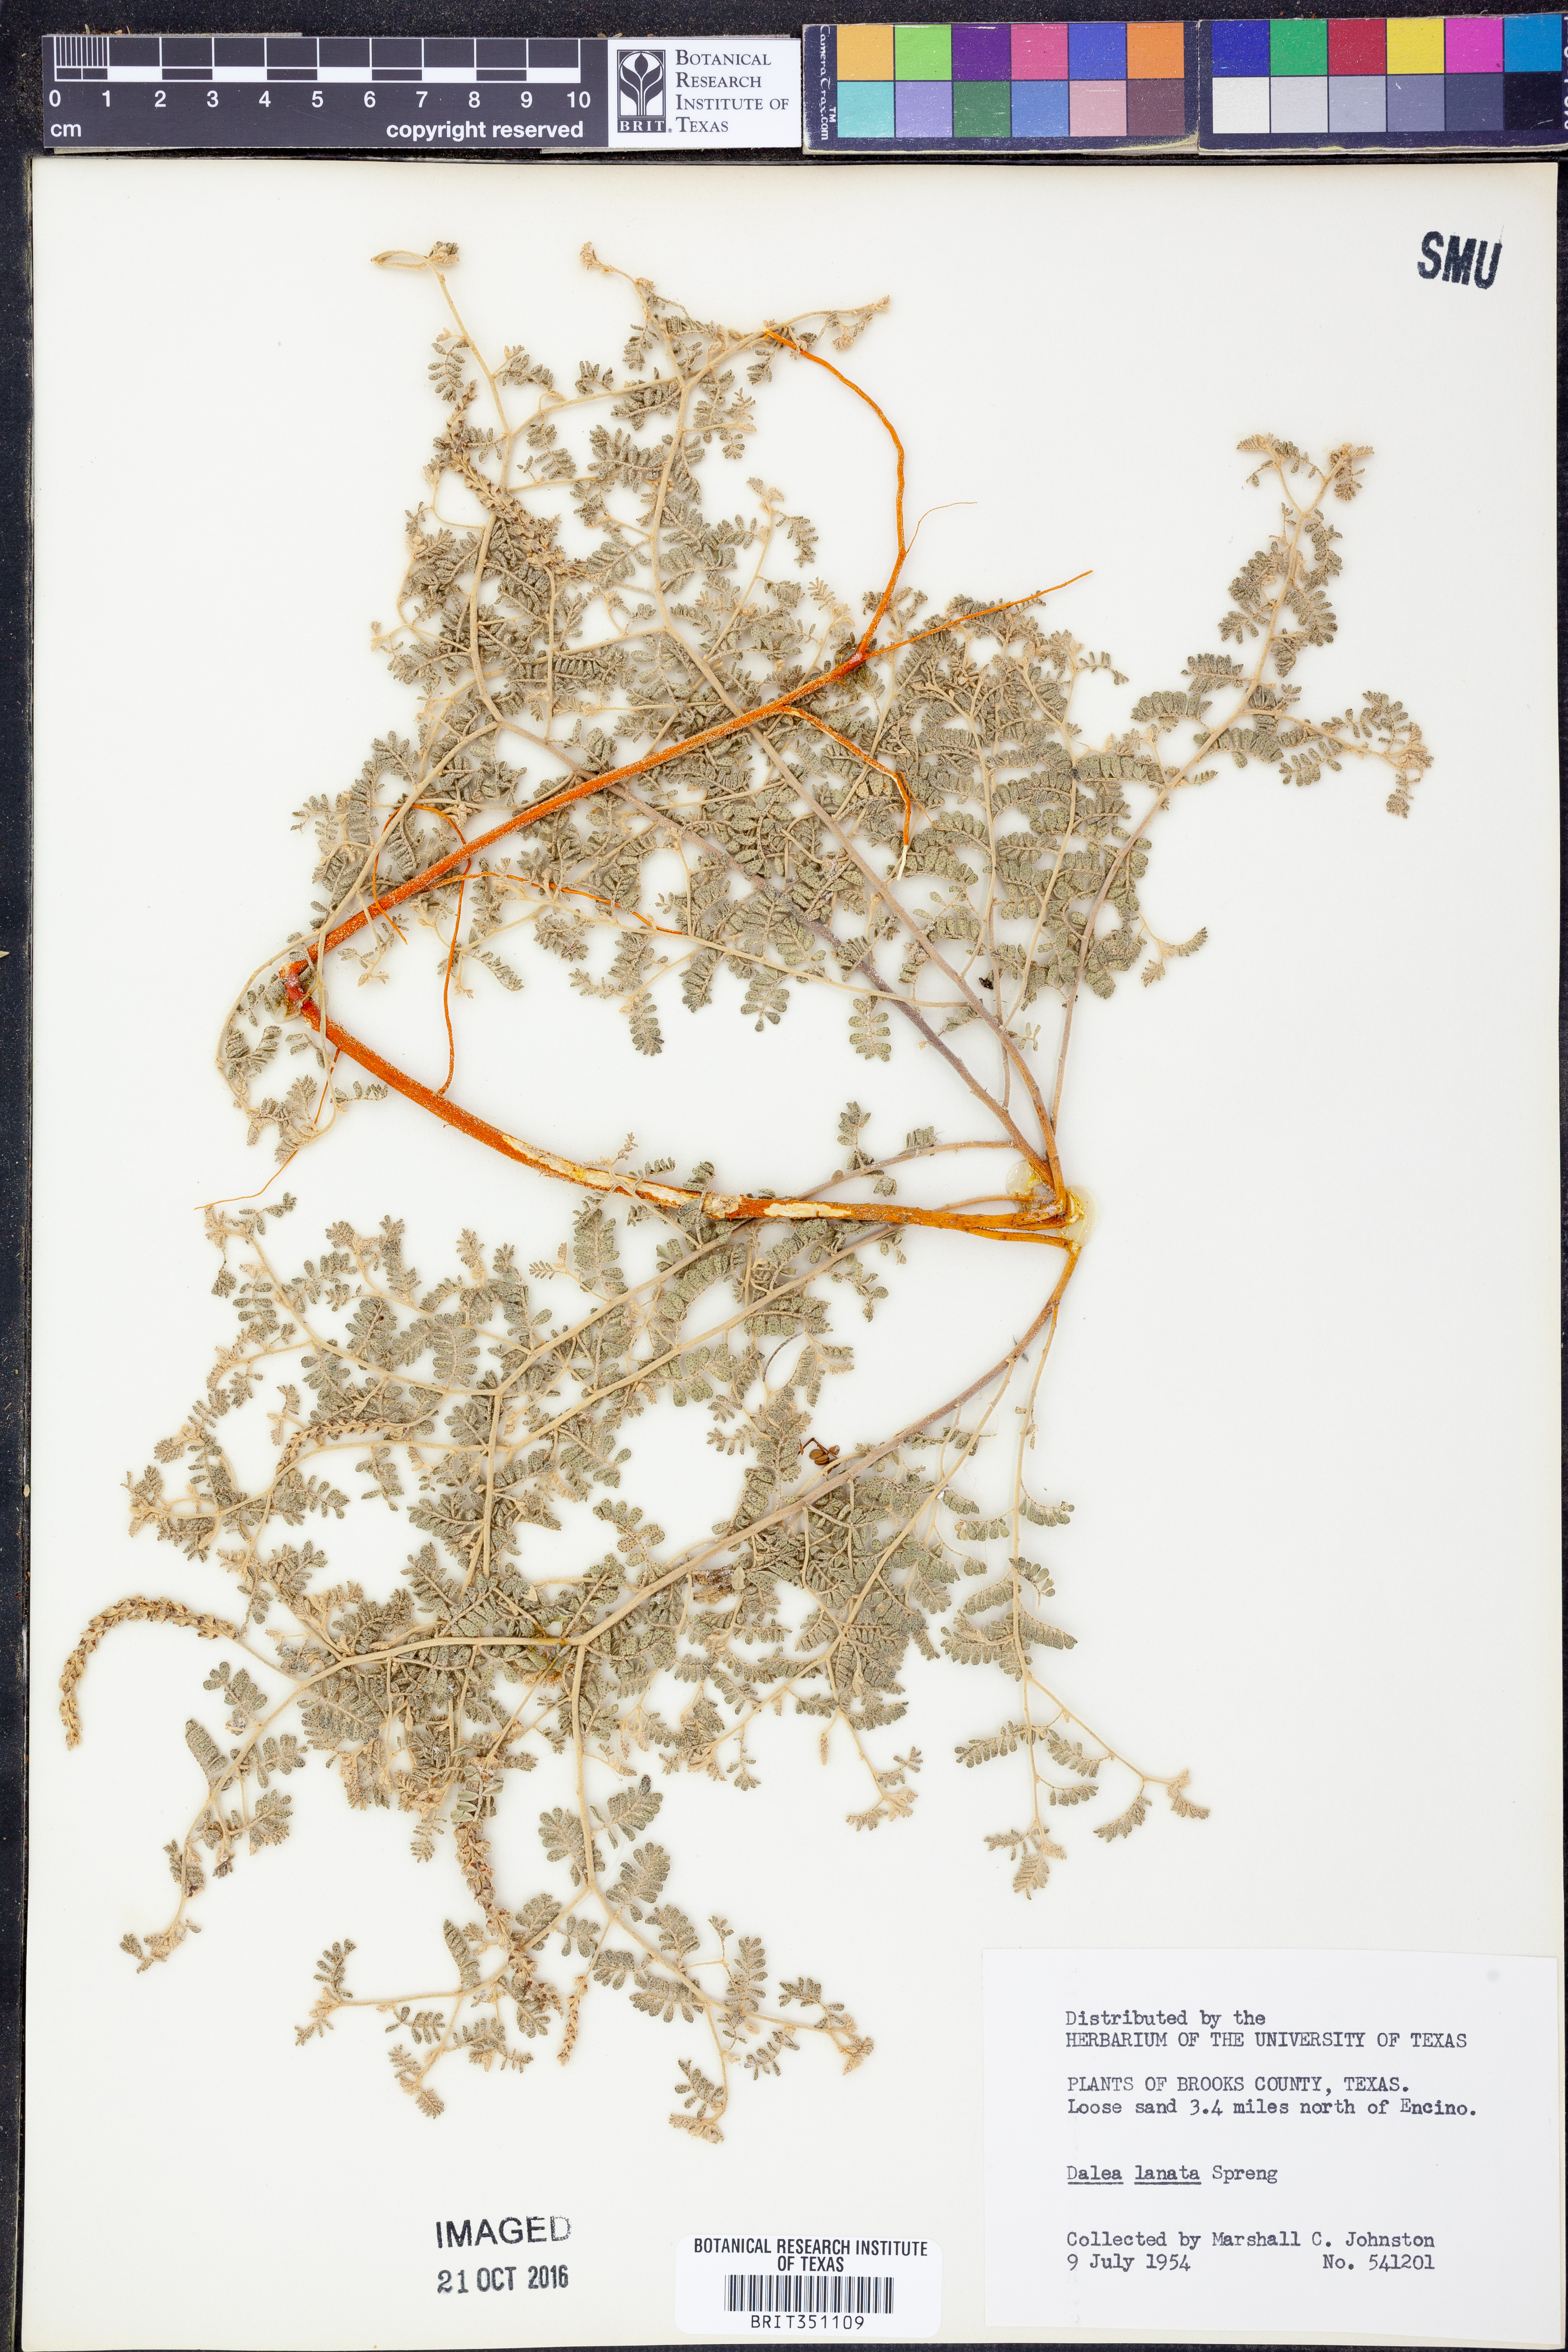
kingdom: Plantae
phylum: Tracheophyta
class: Magnoliopsida
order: Fabales
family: Fabaceae
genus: Dalea
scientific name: Dalea lanata
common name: Woolly dalea
